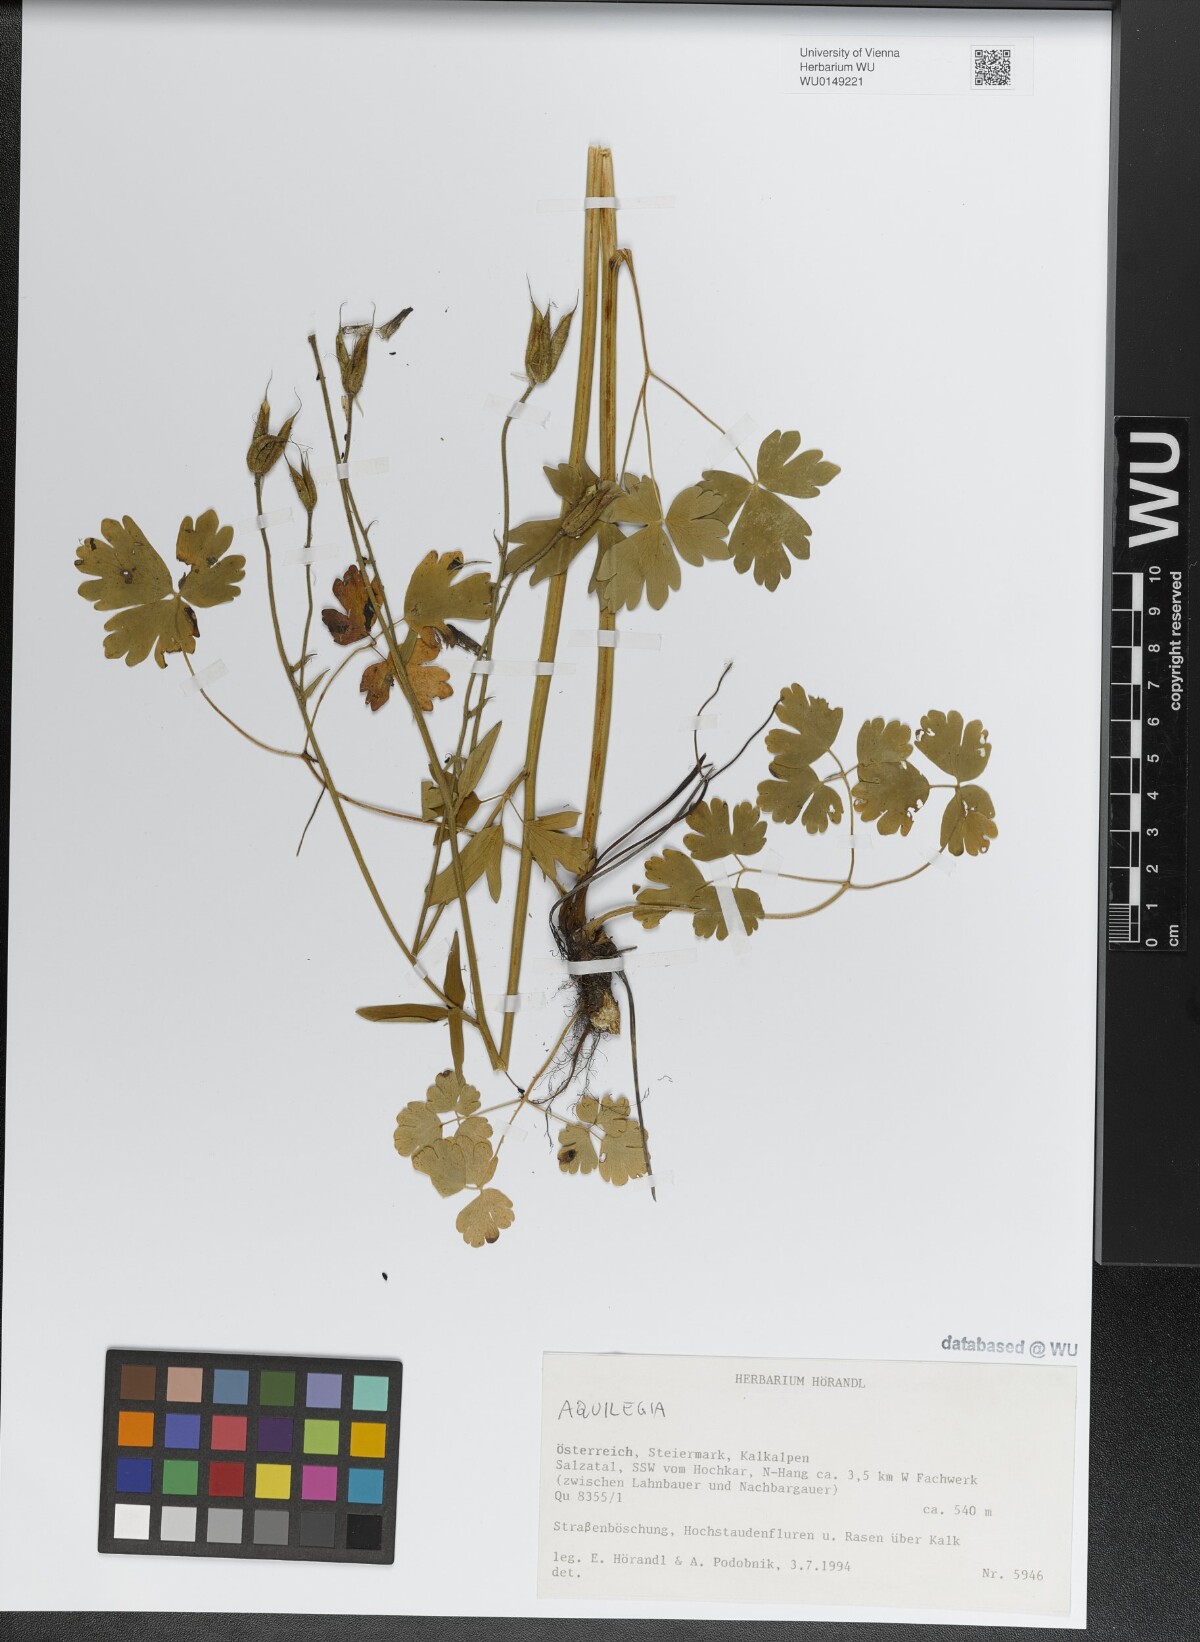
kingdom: Plantae
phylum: Tracheophyta
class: Magnoliopsida
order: Ranunculales
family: Ranunculaceae
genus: Aquilegia
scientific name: Aquilegia
